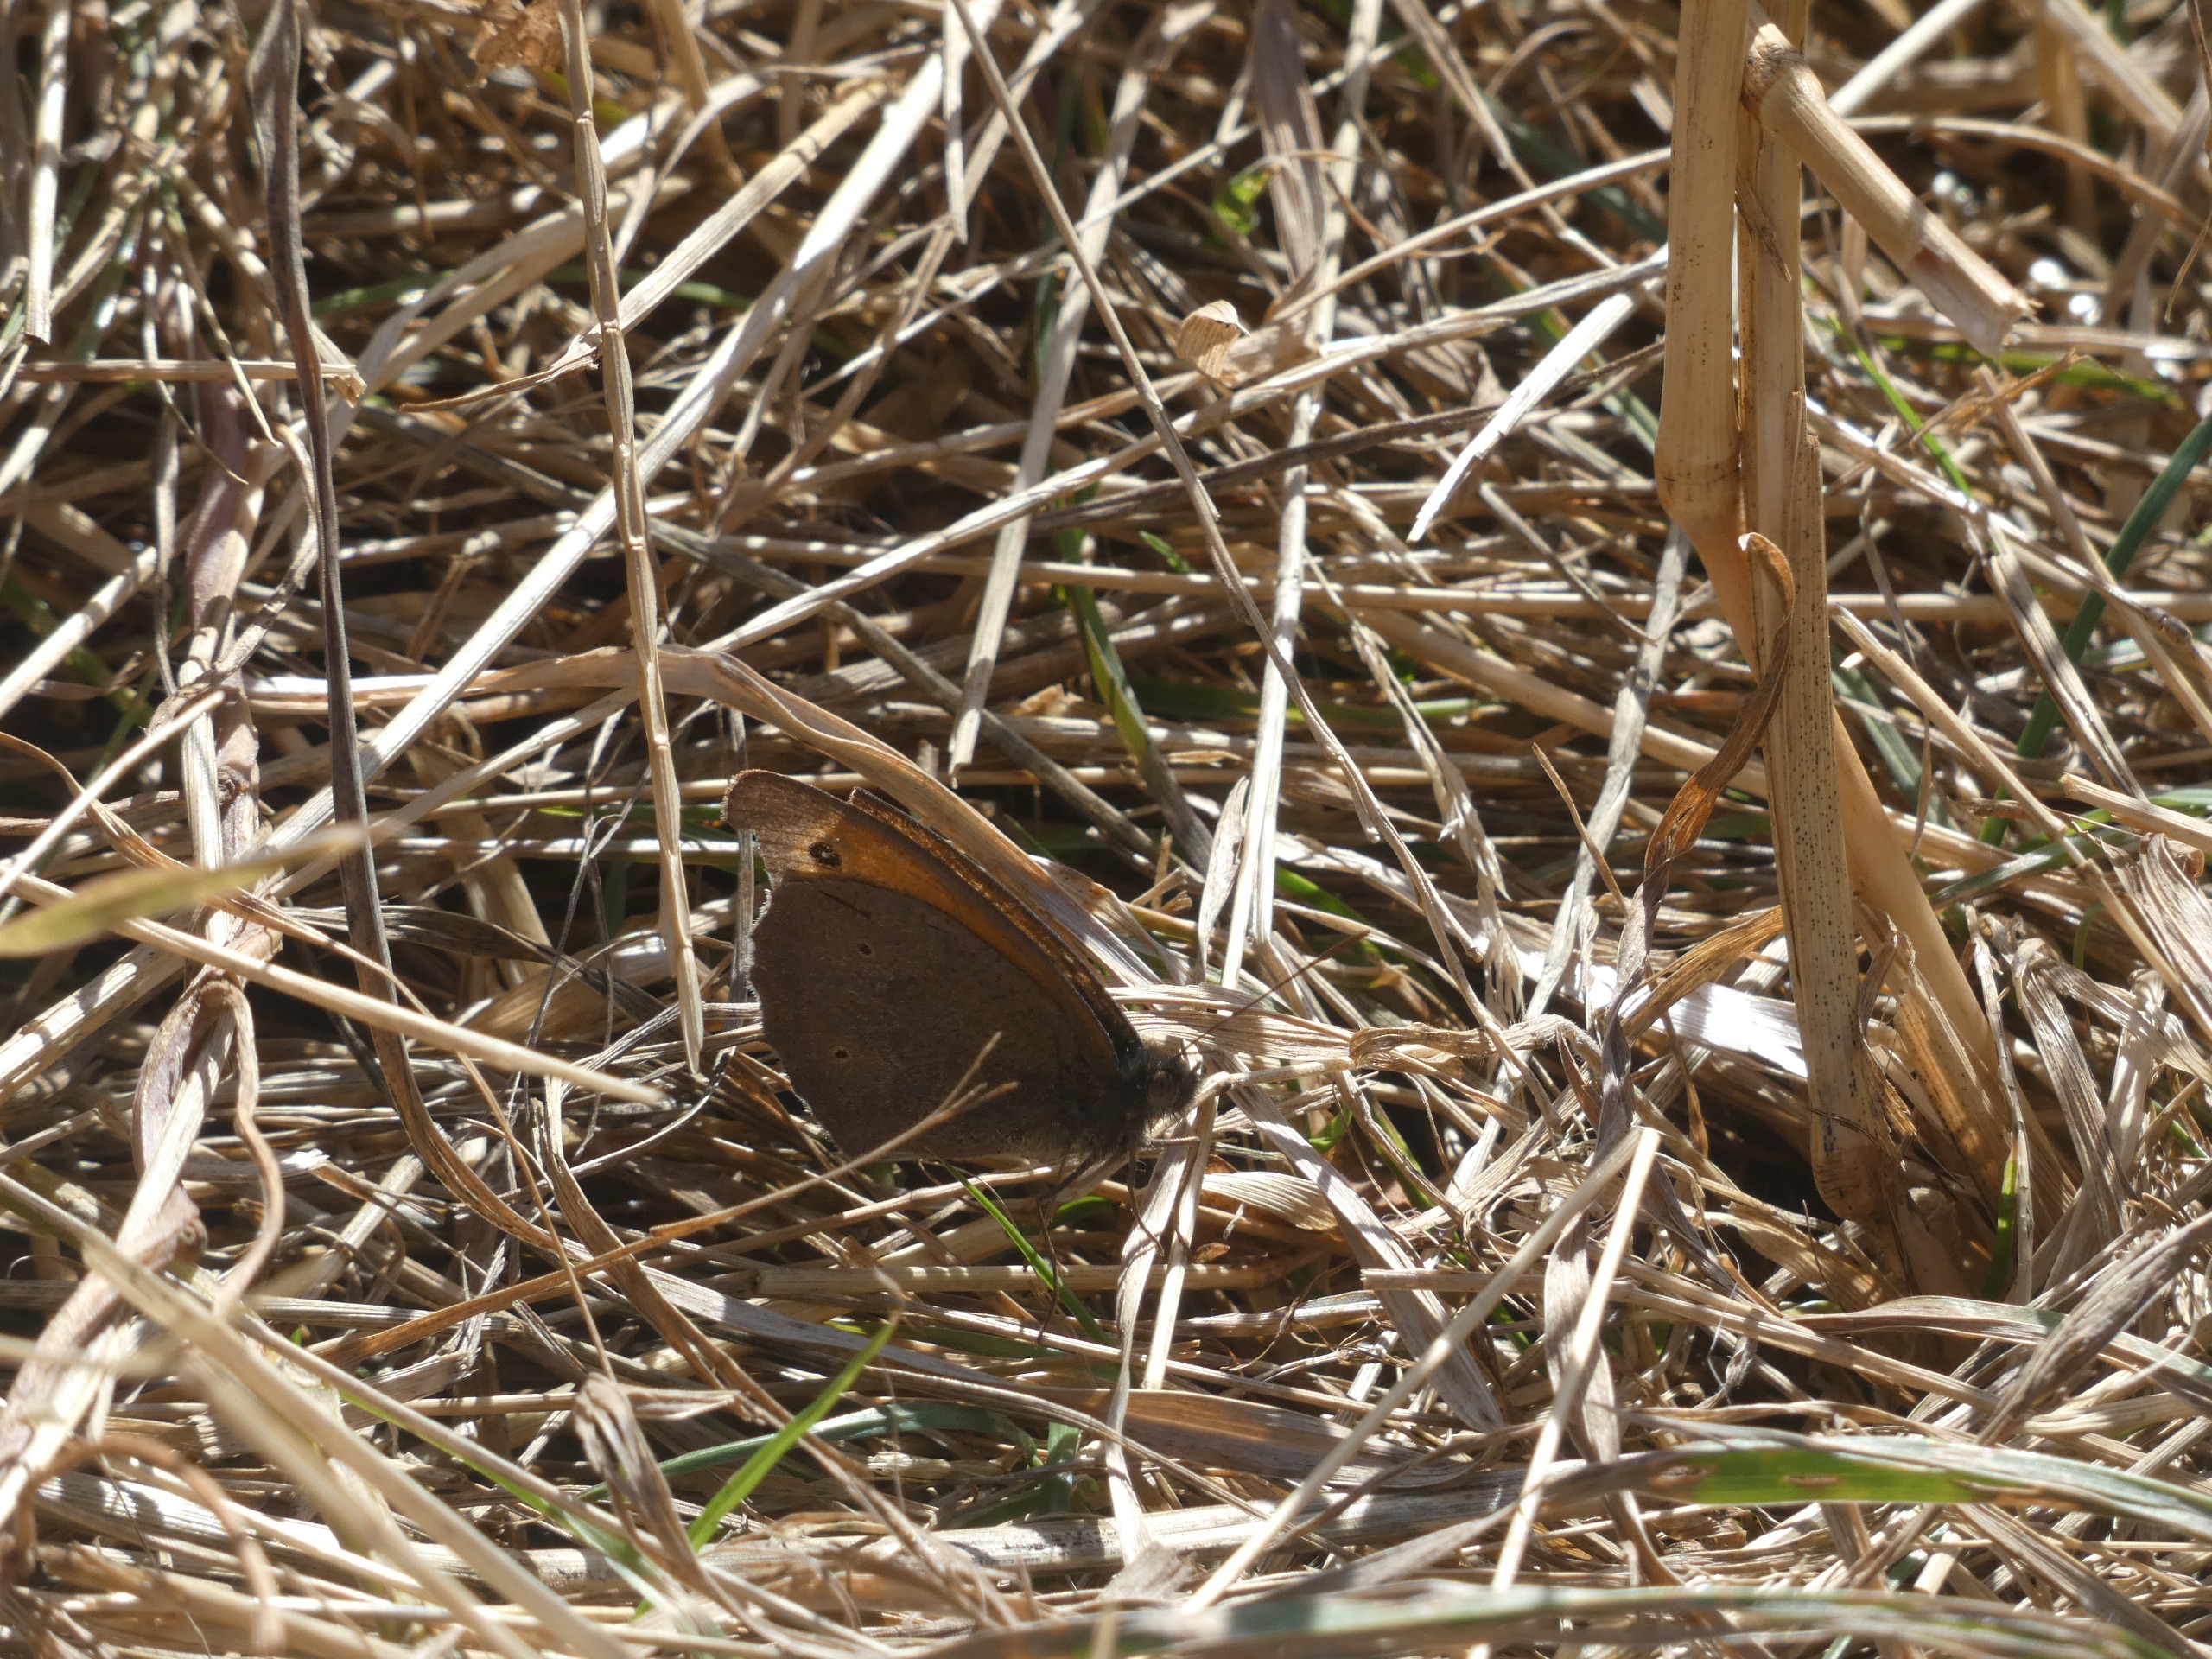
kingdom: Animalia
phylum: Arthropoda
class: Insecta
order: Lepidoptera
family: Nymphalidae
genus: Maniola
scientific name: Maniola jurtina
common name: Græsrandøje
